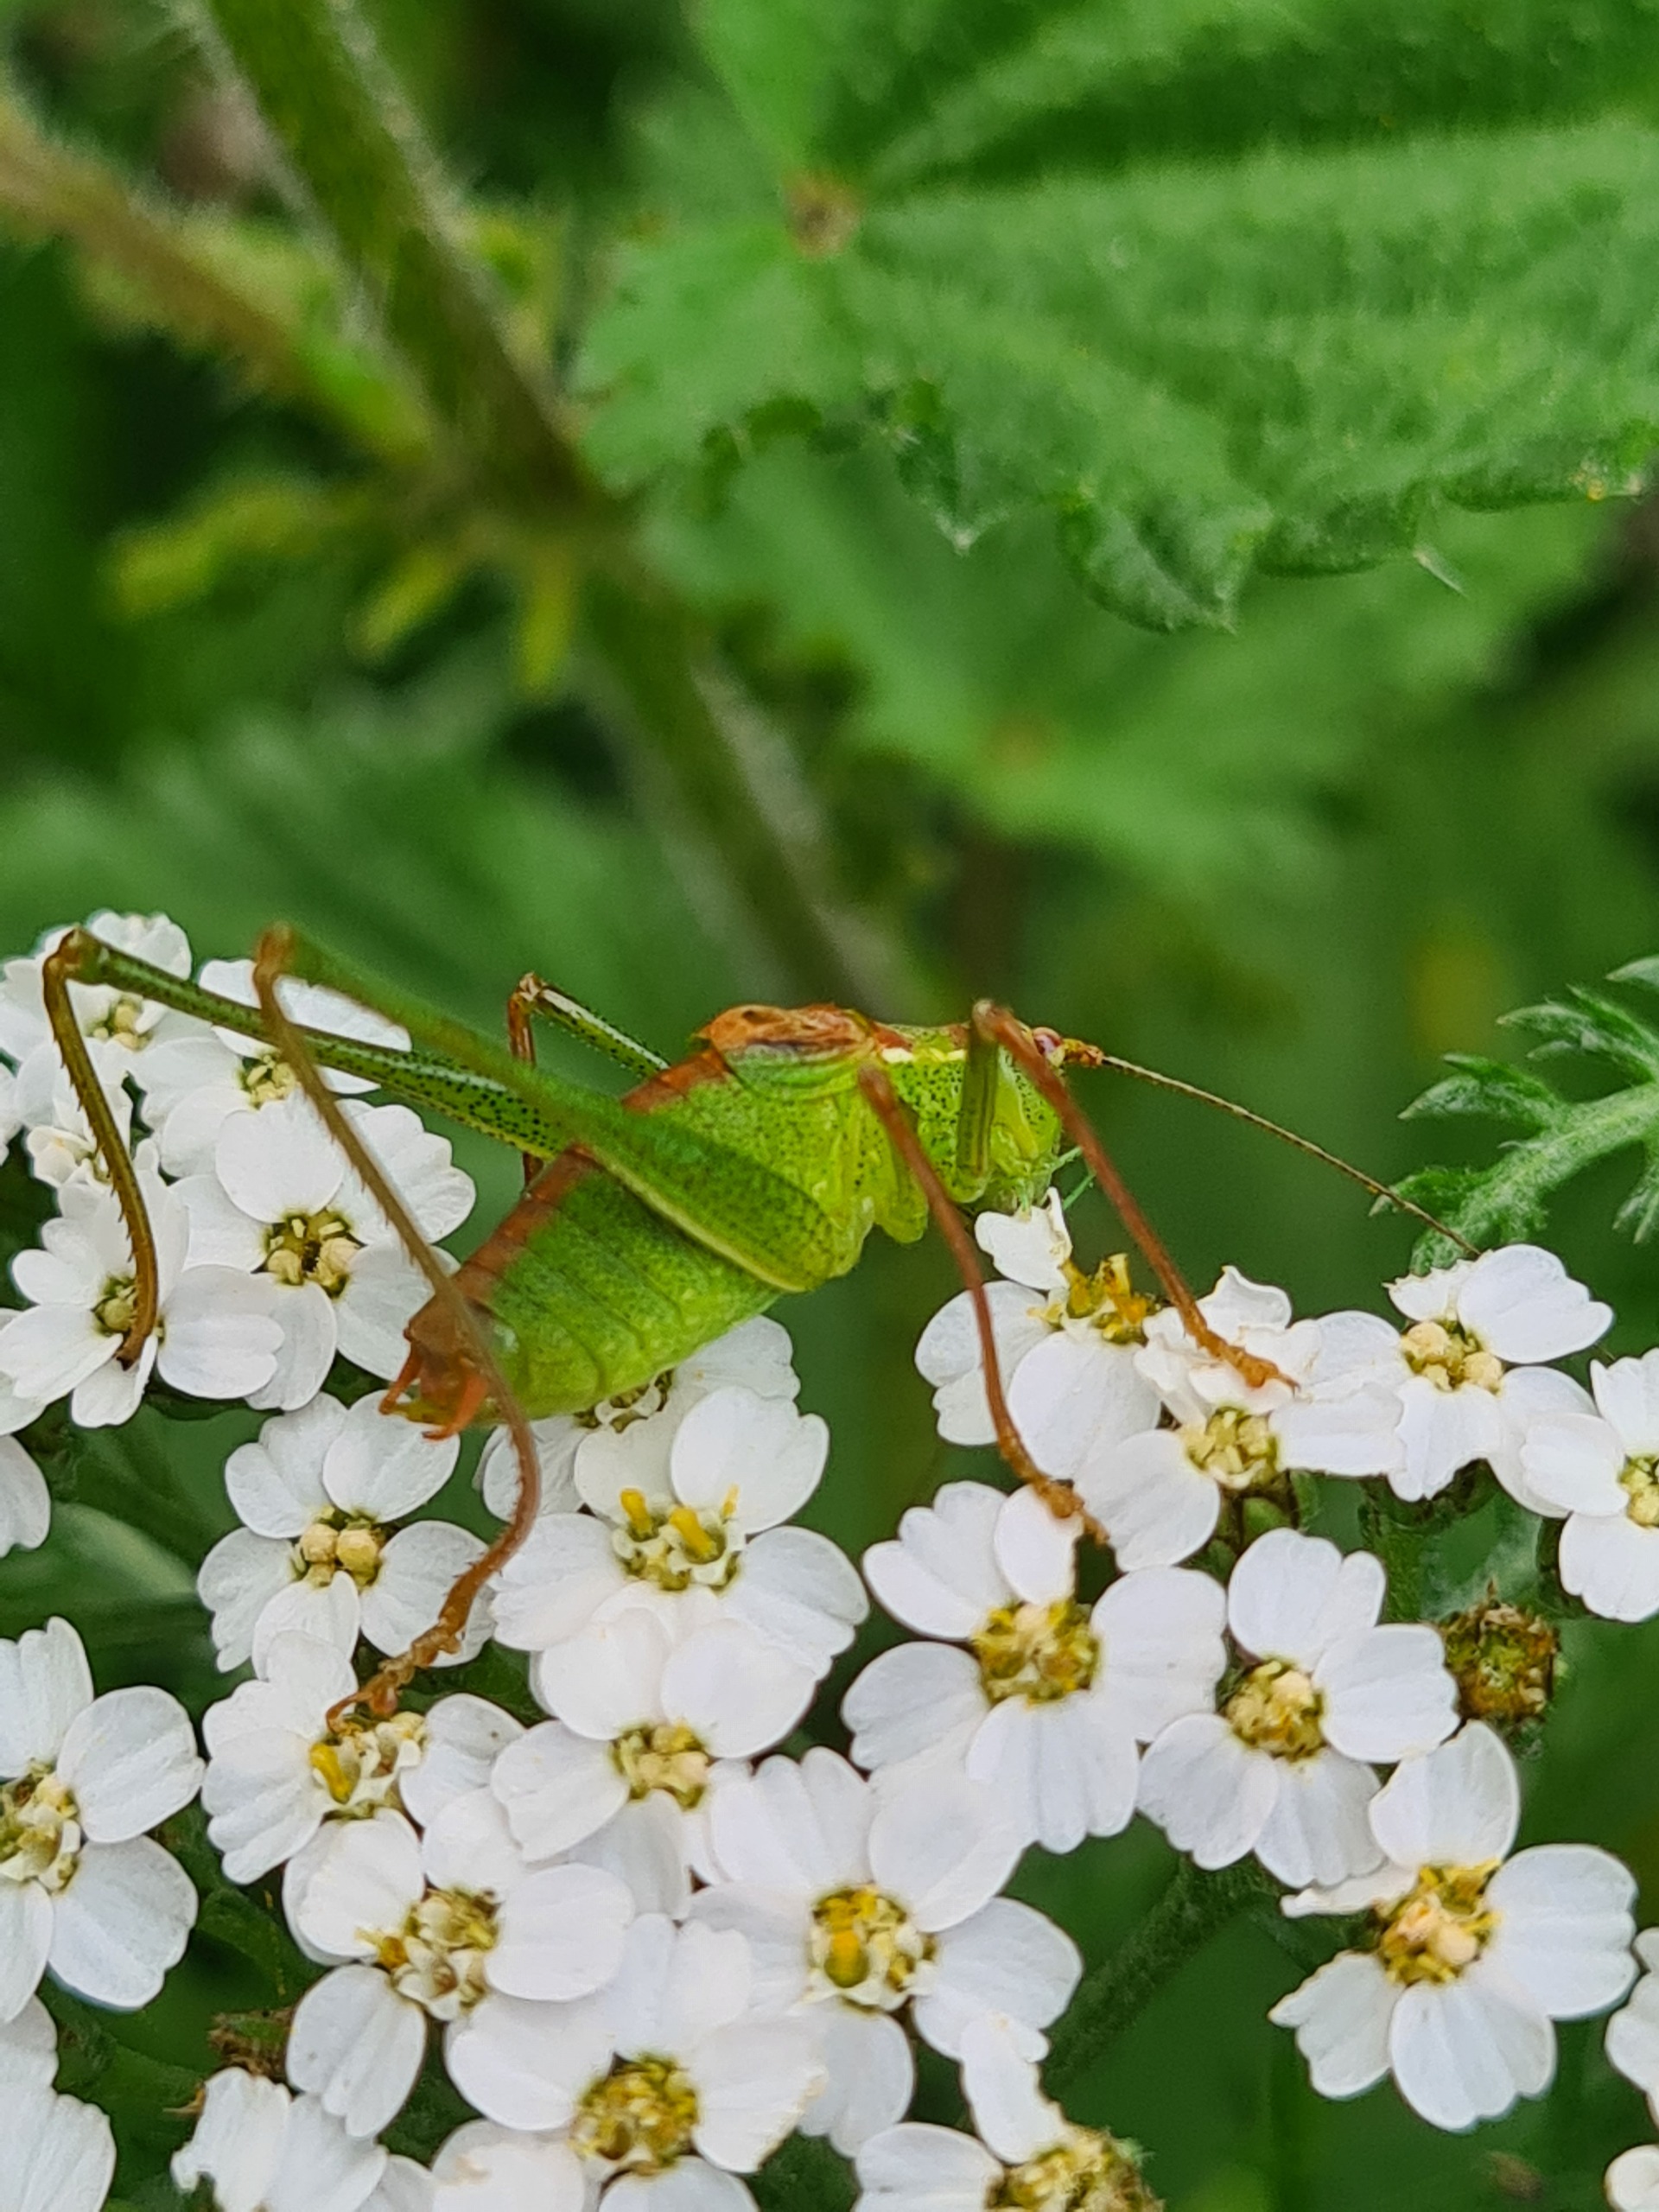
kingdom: Animalia
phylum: Arthropoda
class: Insecta
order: Orthoptera
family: Tettigoniidae
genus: Leptophyes
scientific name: Leptophyes punctatissima
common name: Krumknivgræshoppe
